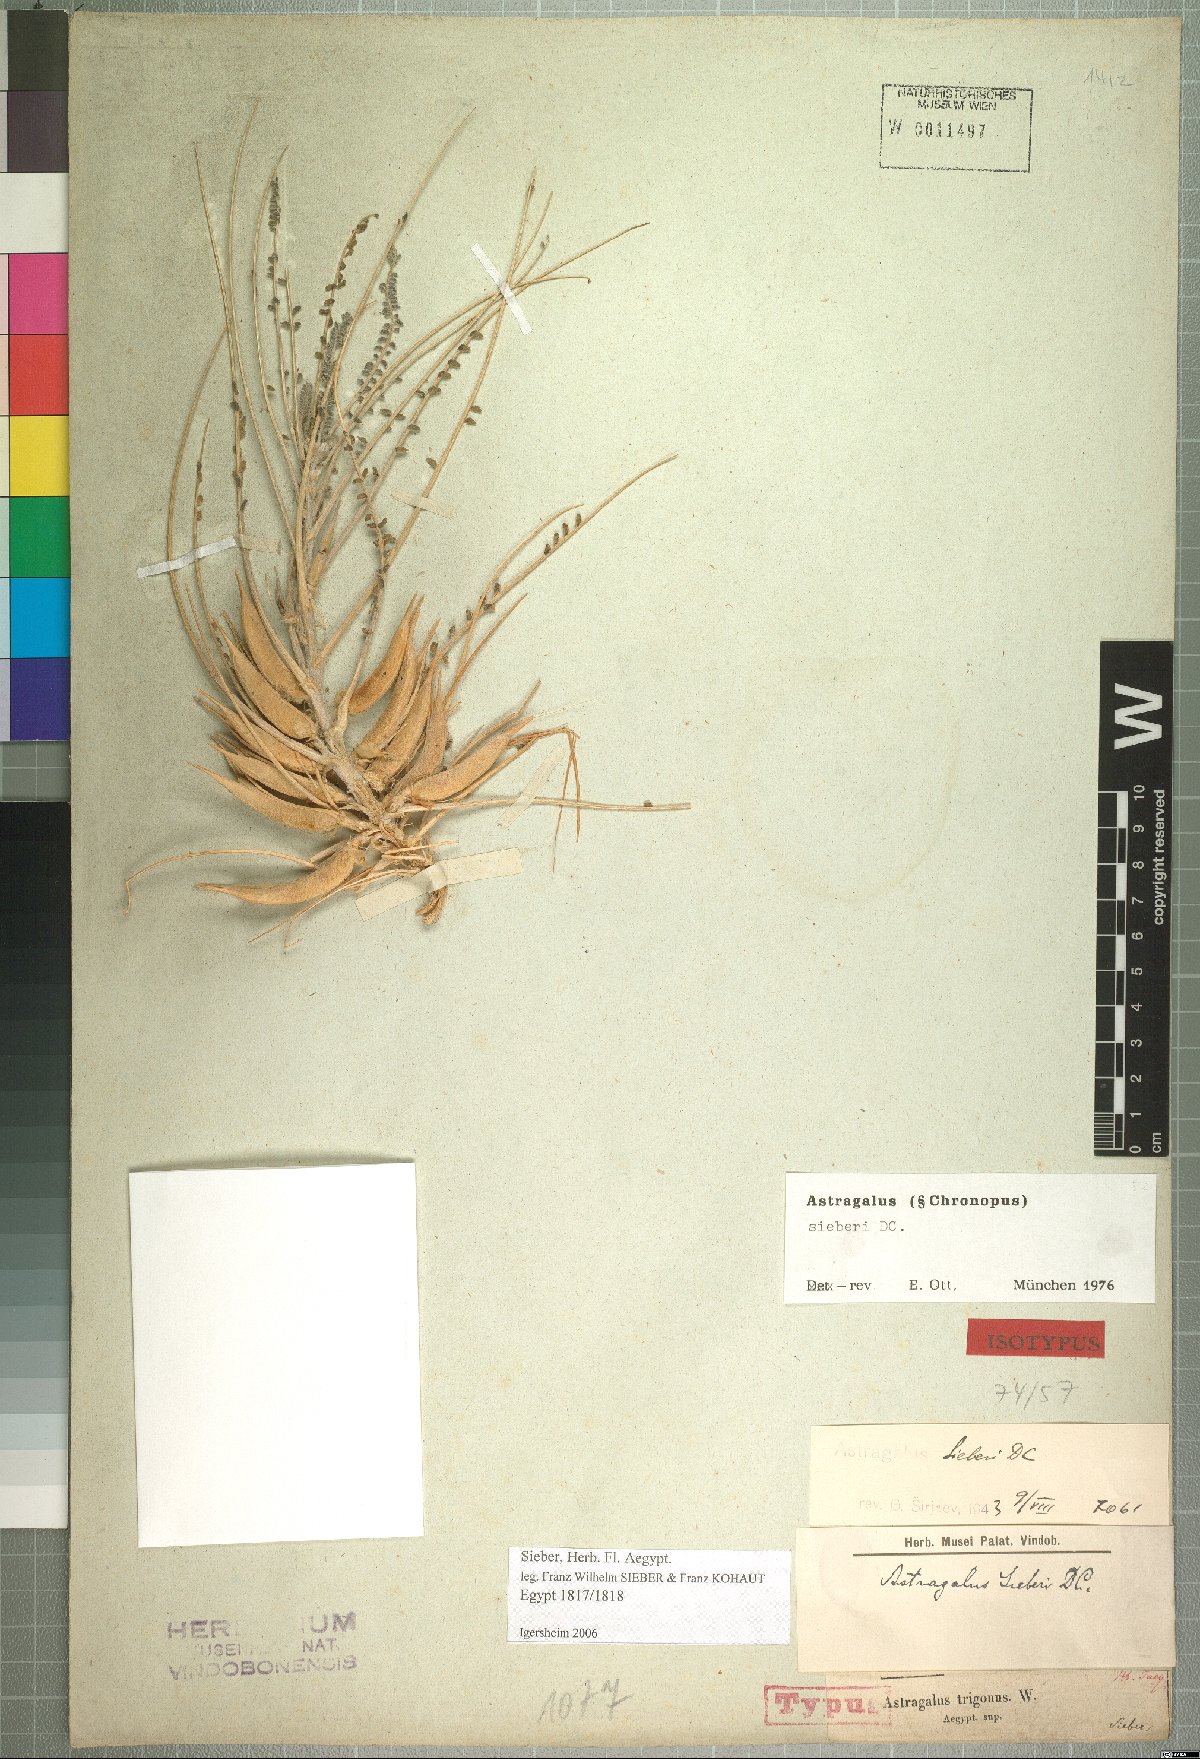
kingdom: Plantae
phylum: Tracheophyta
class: Magnoliopsida
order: Fabales
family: Fabaceae
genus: Astragalus
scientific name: Astragalus sieberi
